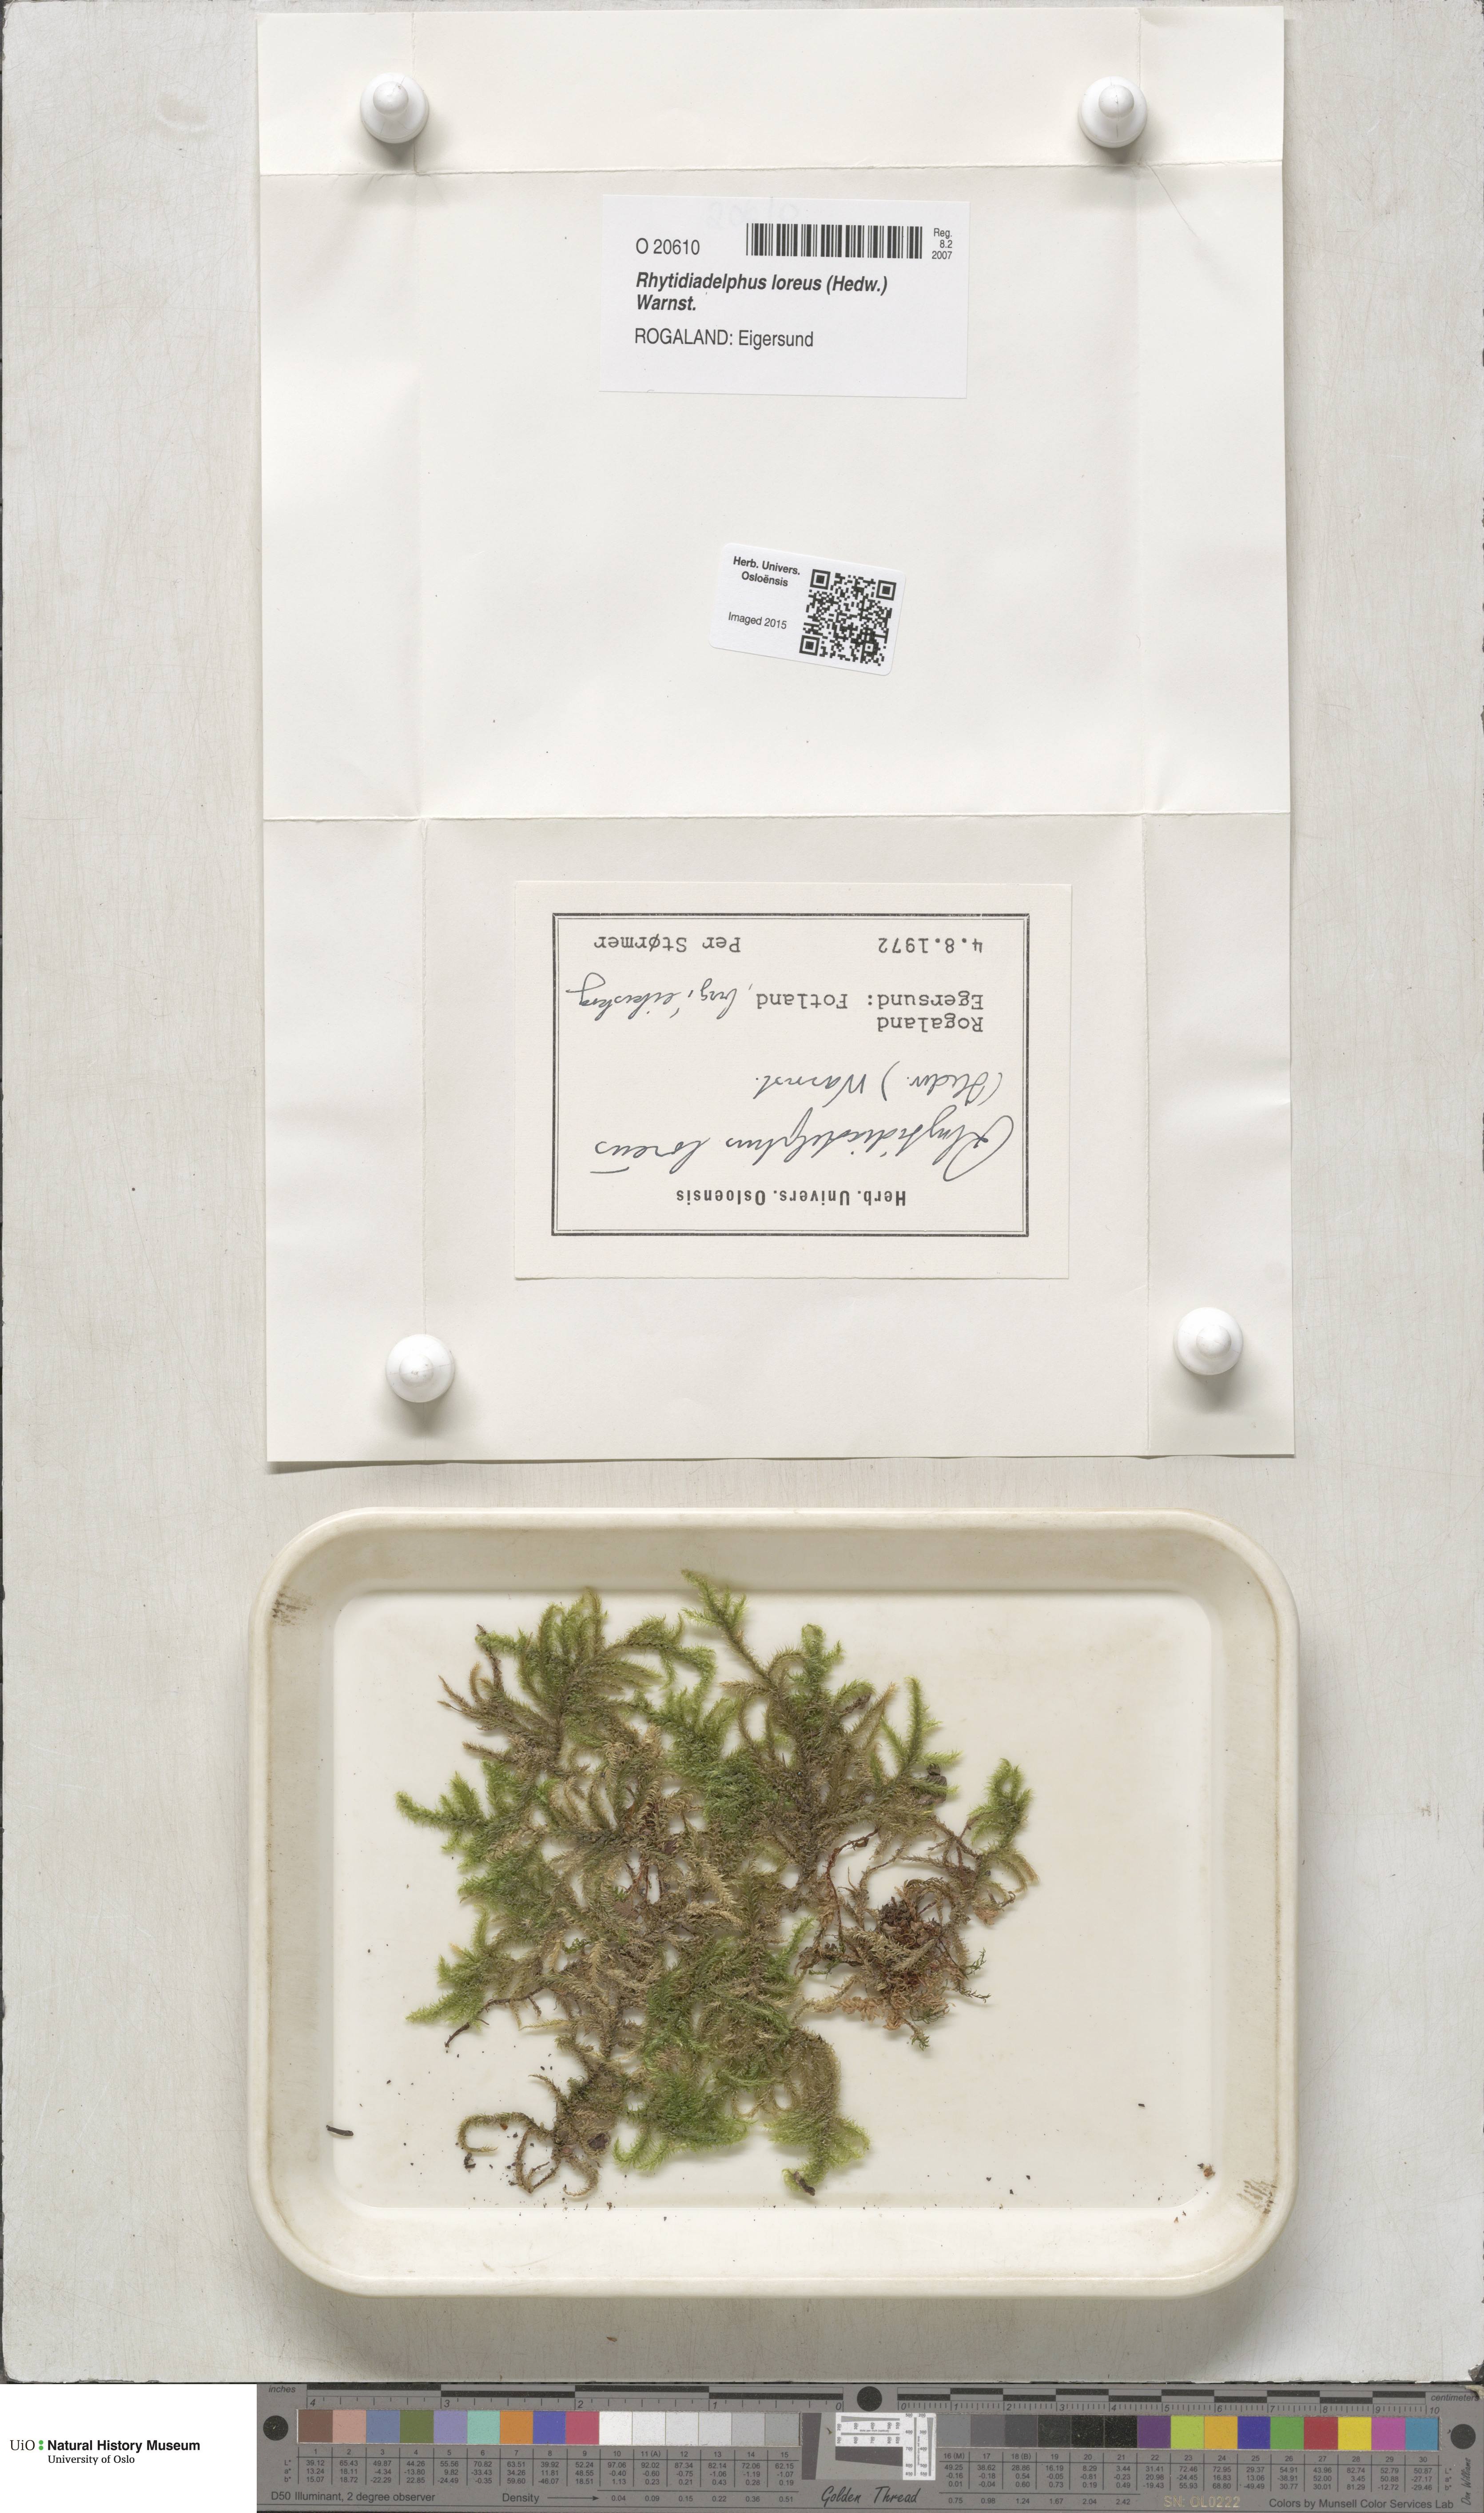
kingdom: Plantae
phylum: Bryophyta
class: Bryopsida
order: Hypnales
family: Hylocomiaceae
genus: Rhytidiadelphus
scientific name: Rhytidiadelphus loreus
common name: Lanky moss
